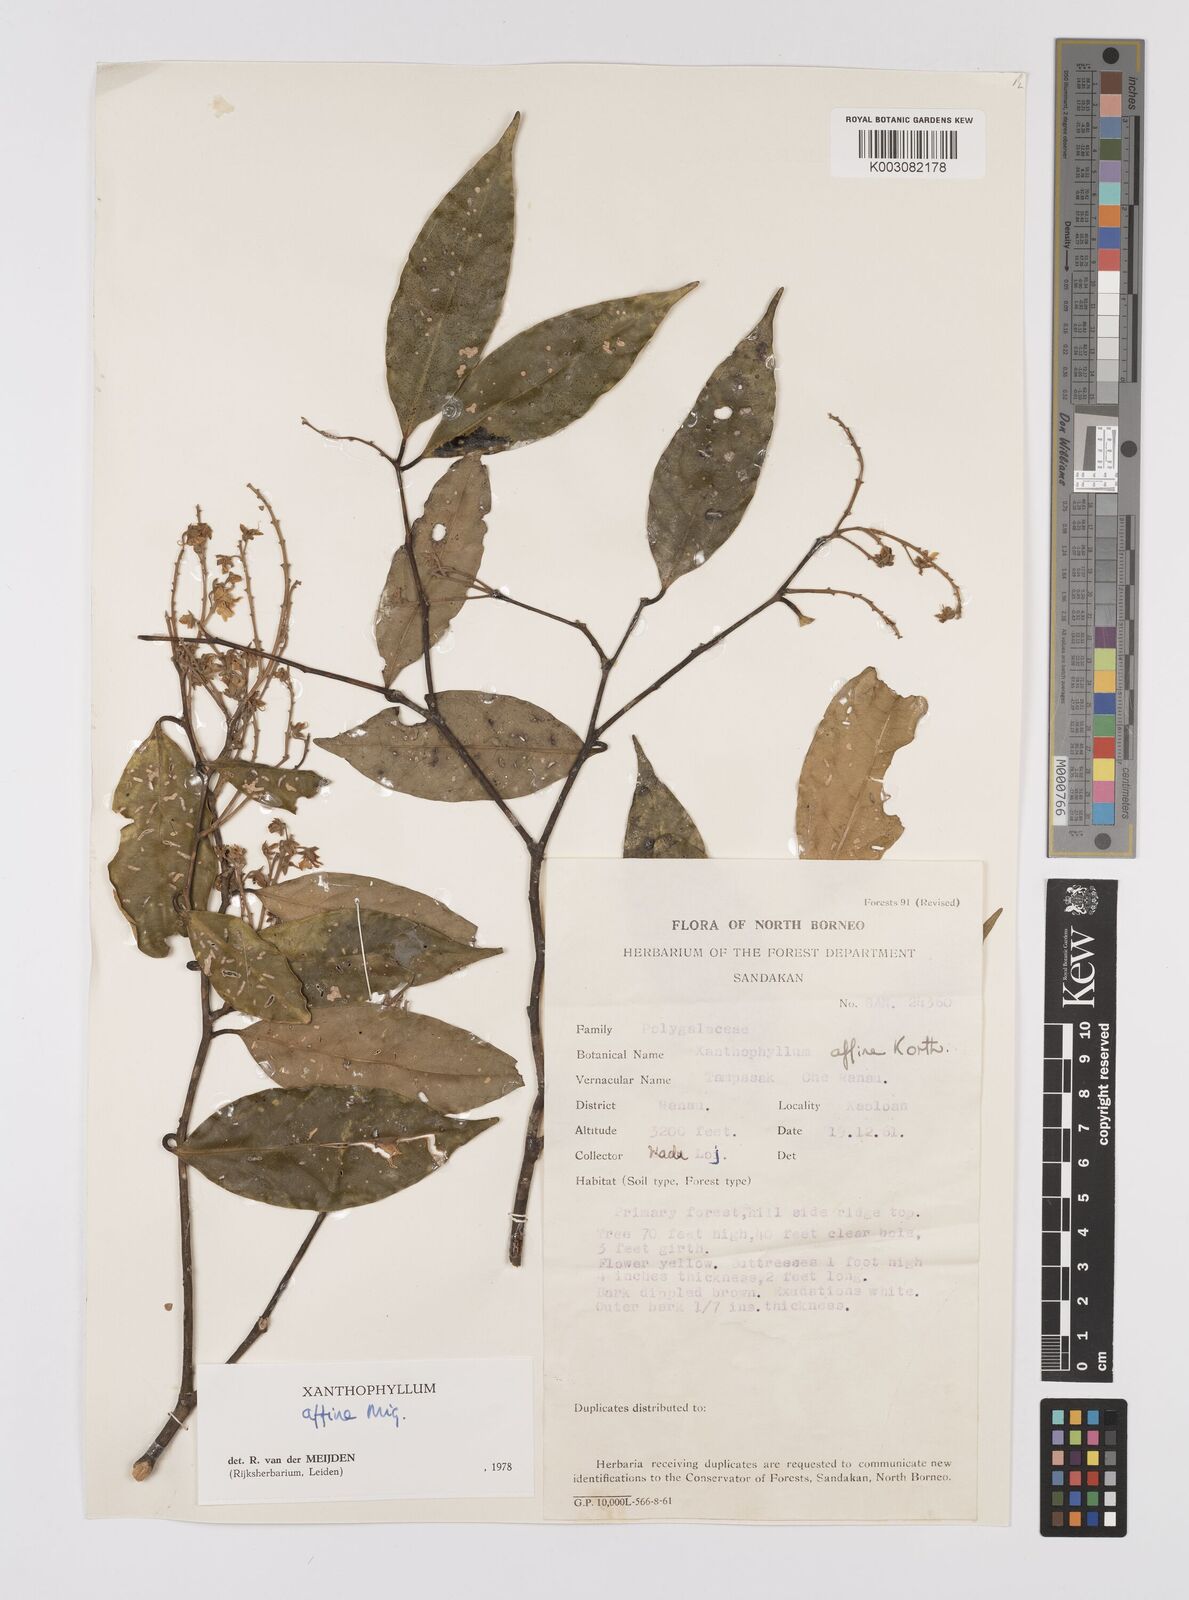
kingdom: Plantae
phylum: Tracheophyta
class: Magnoliopsida
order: Fabales
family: Polygalaceae
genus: Xanthophyllum
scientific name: Xanthophyllum flavescens
